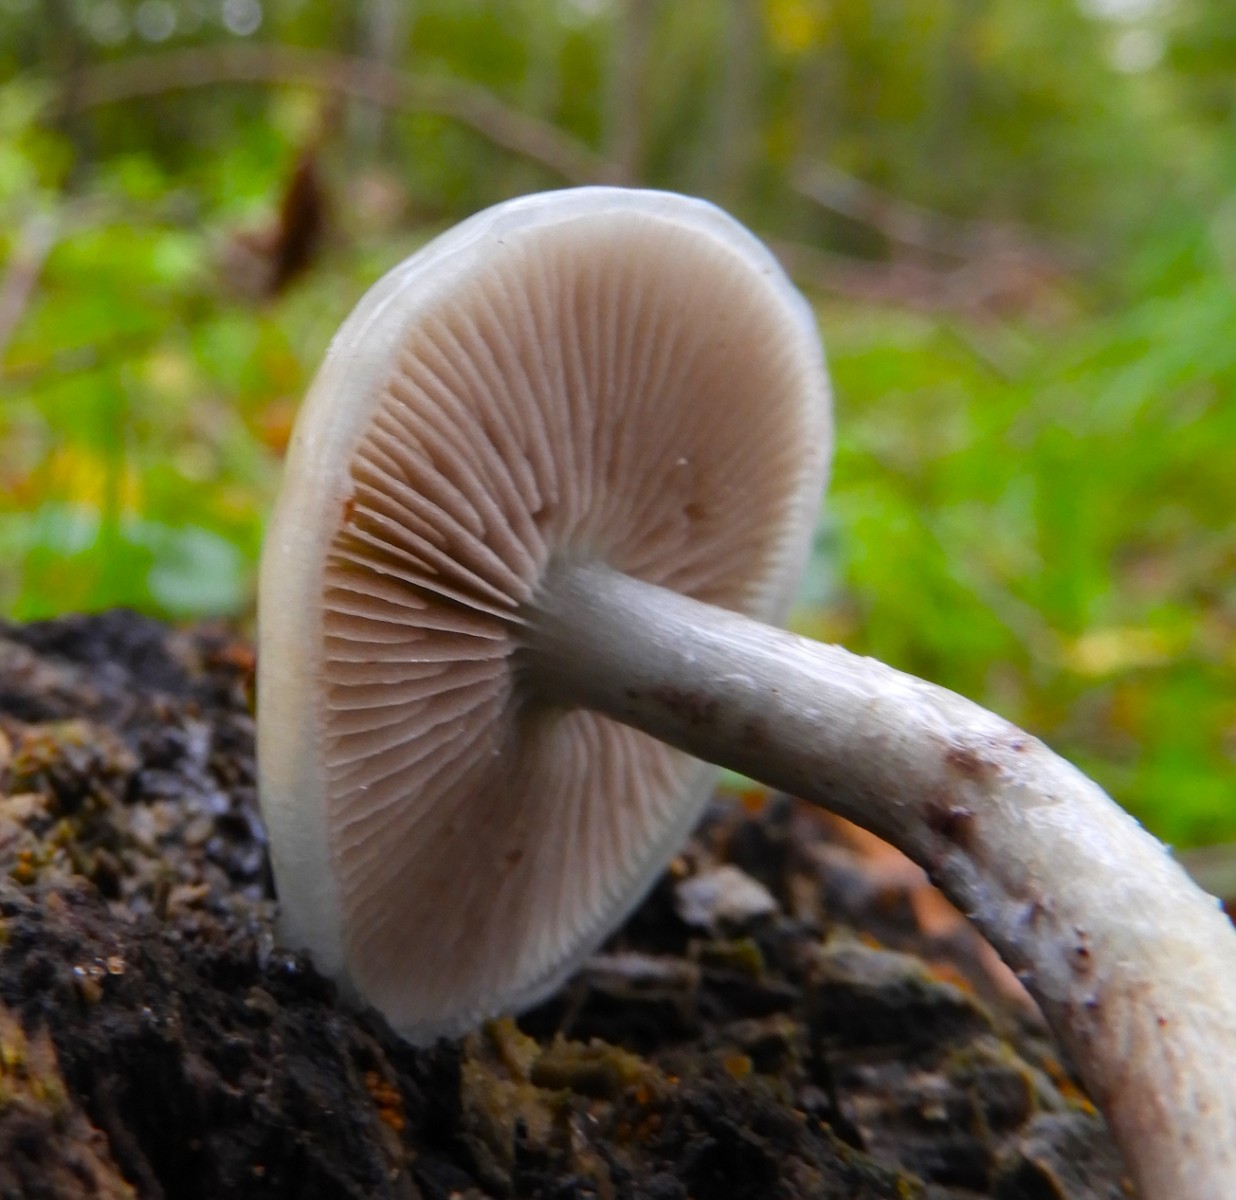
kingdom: Fungi
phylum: Basidiomycota
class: Agaricomycetes
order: Agaricales
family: Strophariaceae
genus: Stropharia
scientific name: Stropharia cyanea
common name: blågrøn bredblad
